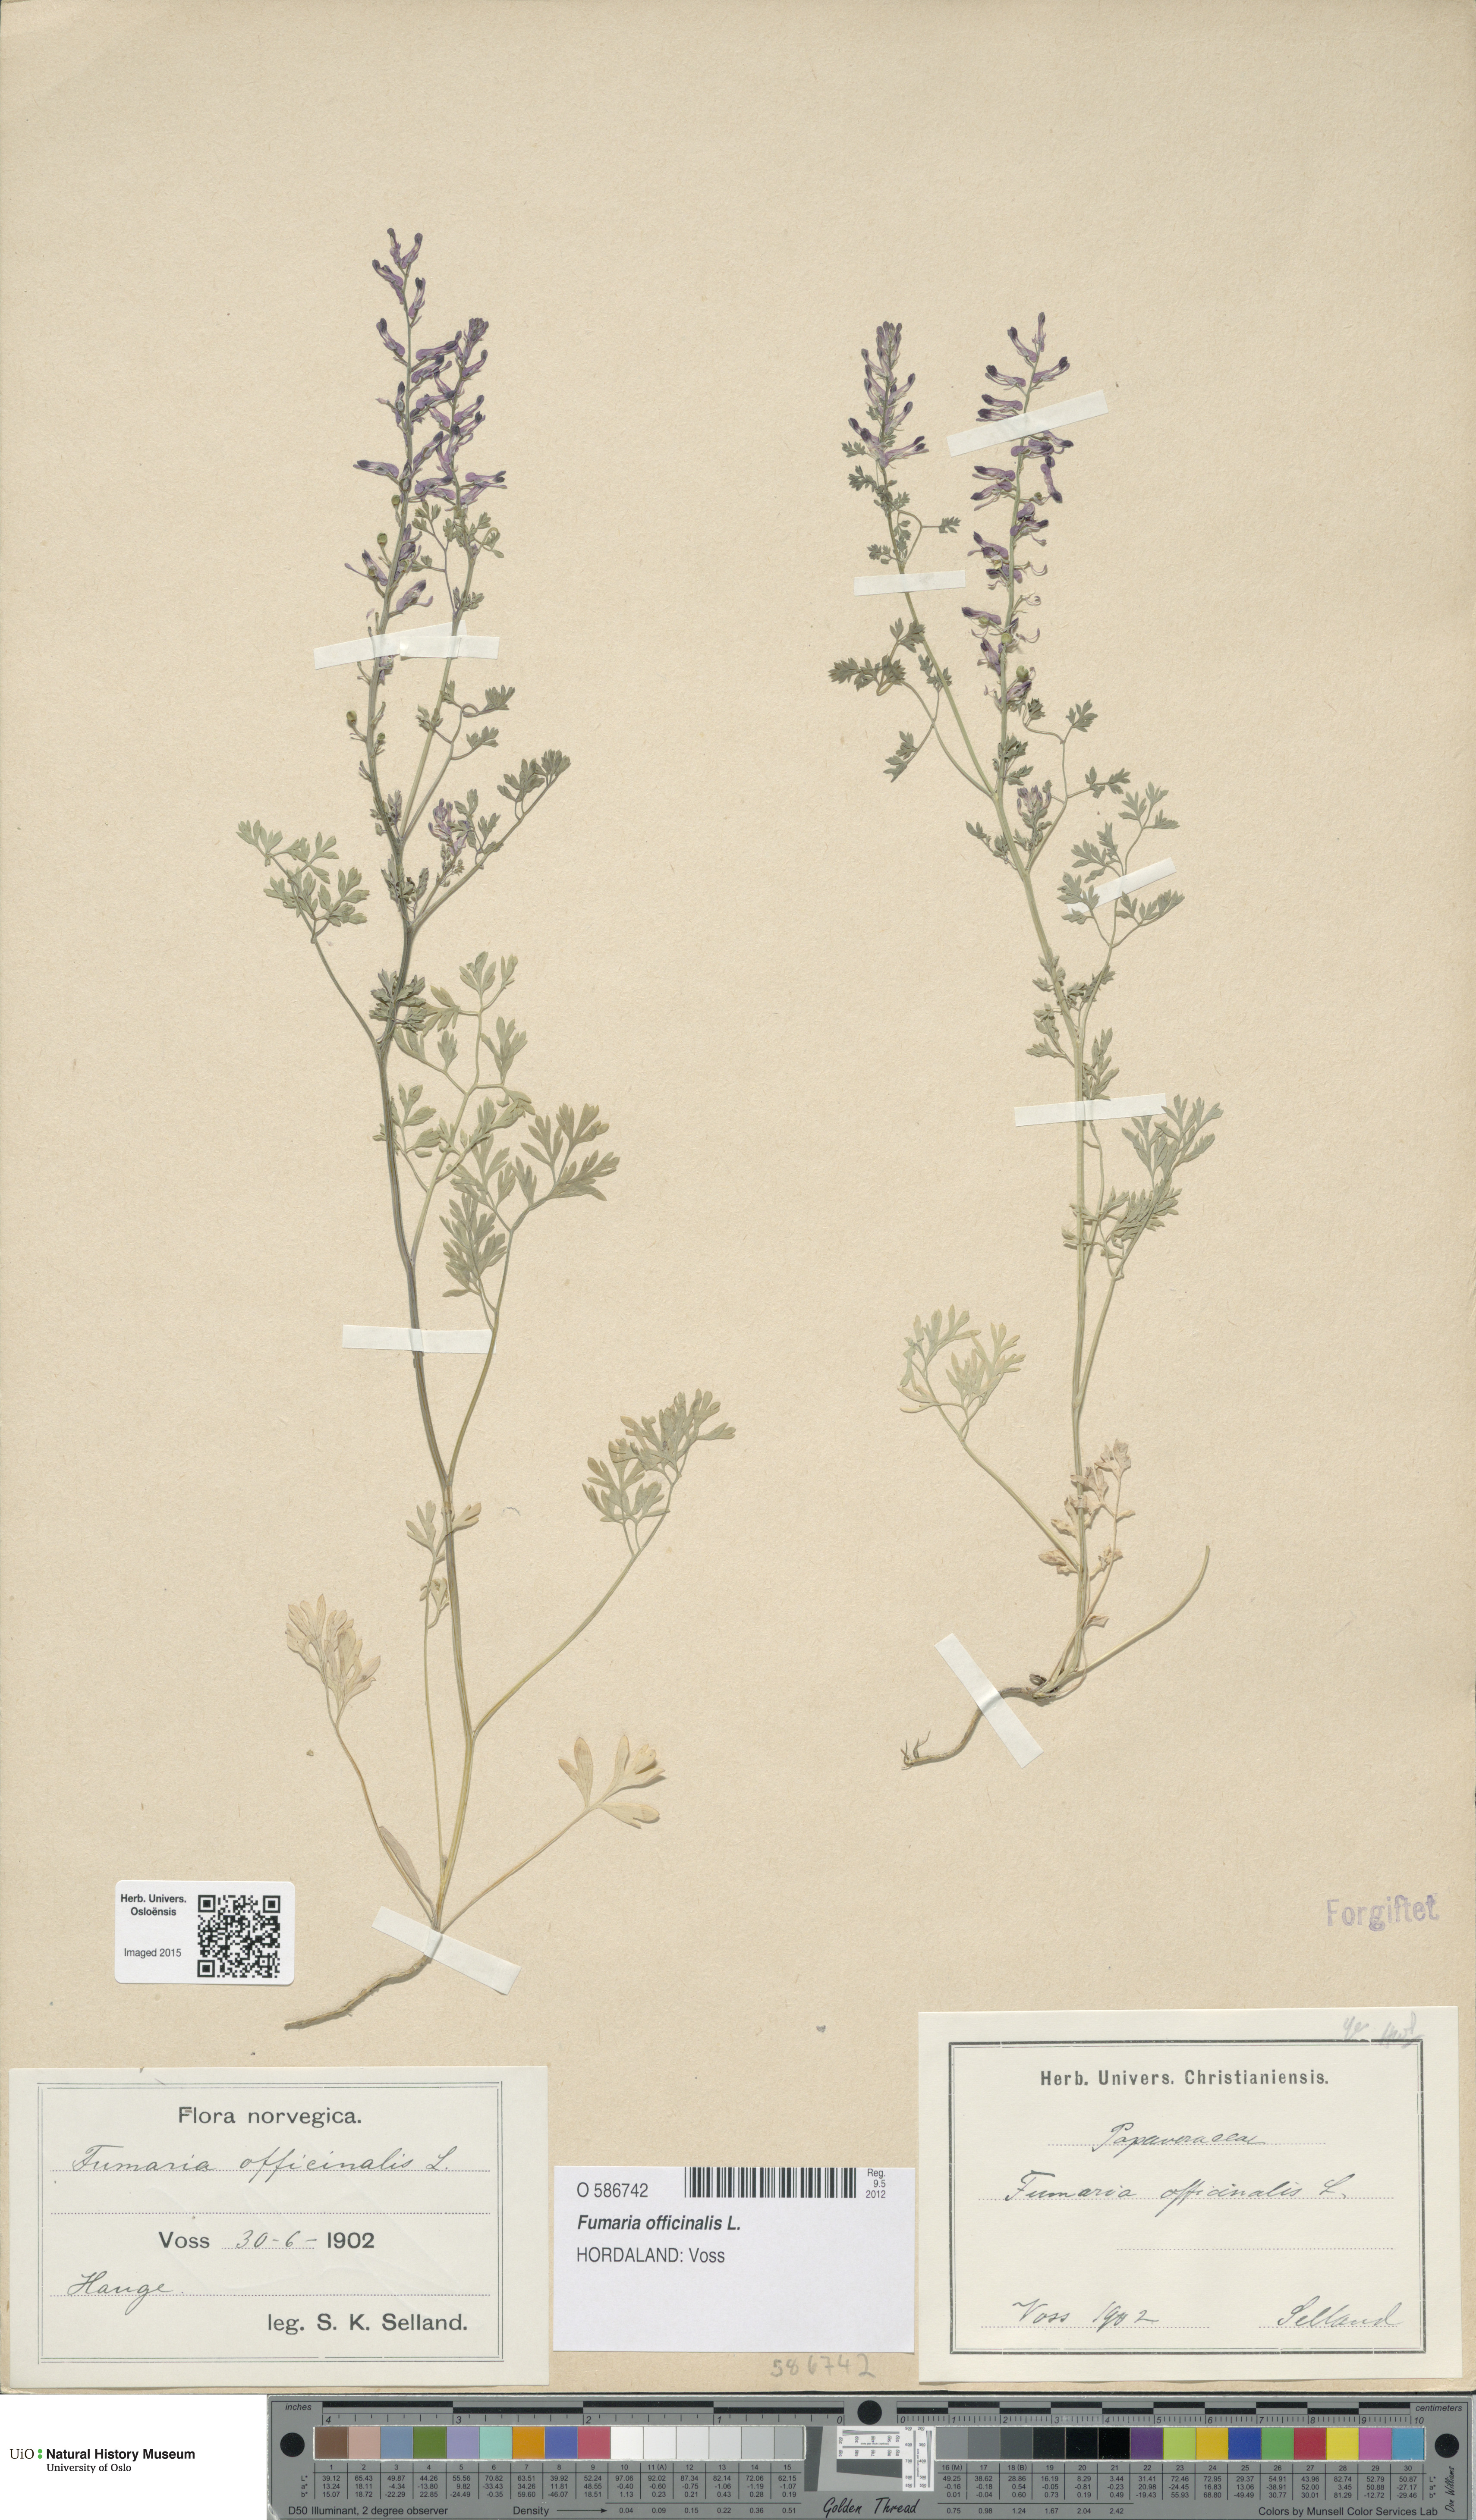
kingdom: Plantae
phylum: Tracheophyta
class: Magnoliopsida
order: Ranunculales
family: Papaveraceae
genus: Fumaria
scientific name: Fumaria officinalis
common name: Common fumitory
